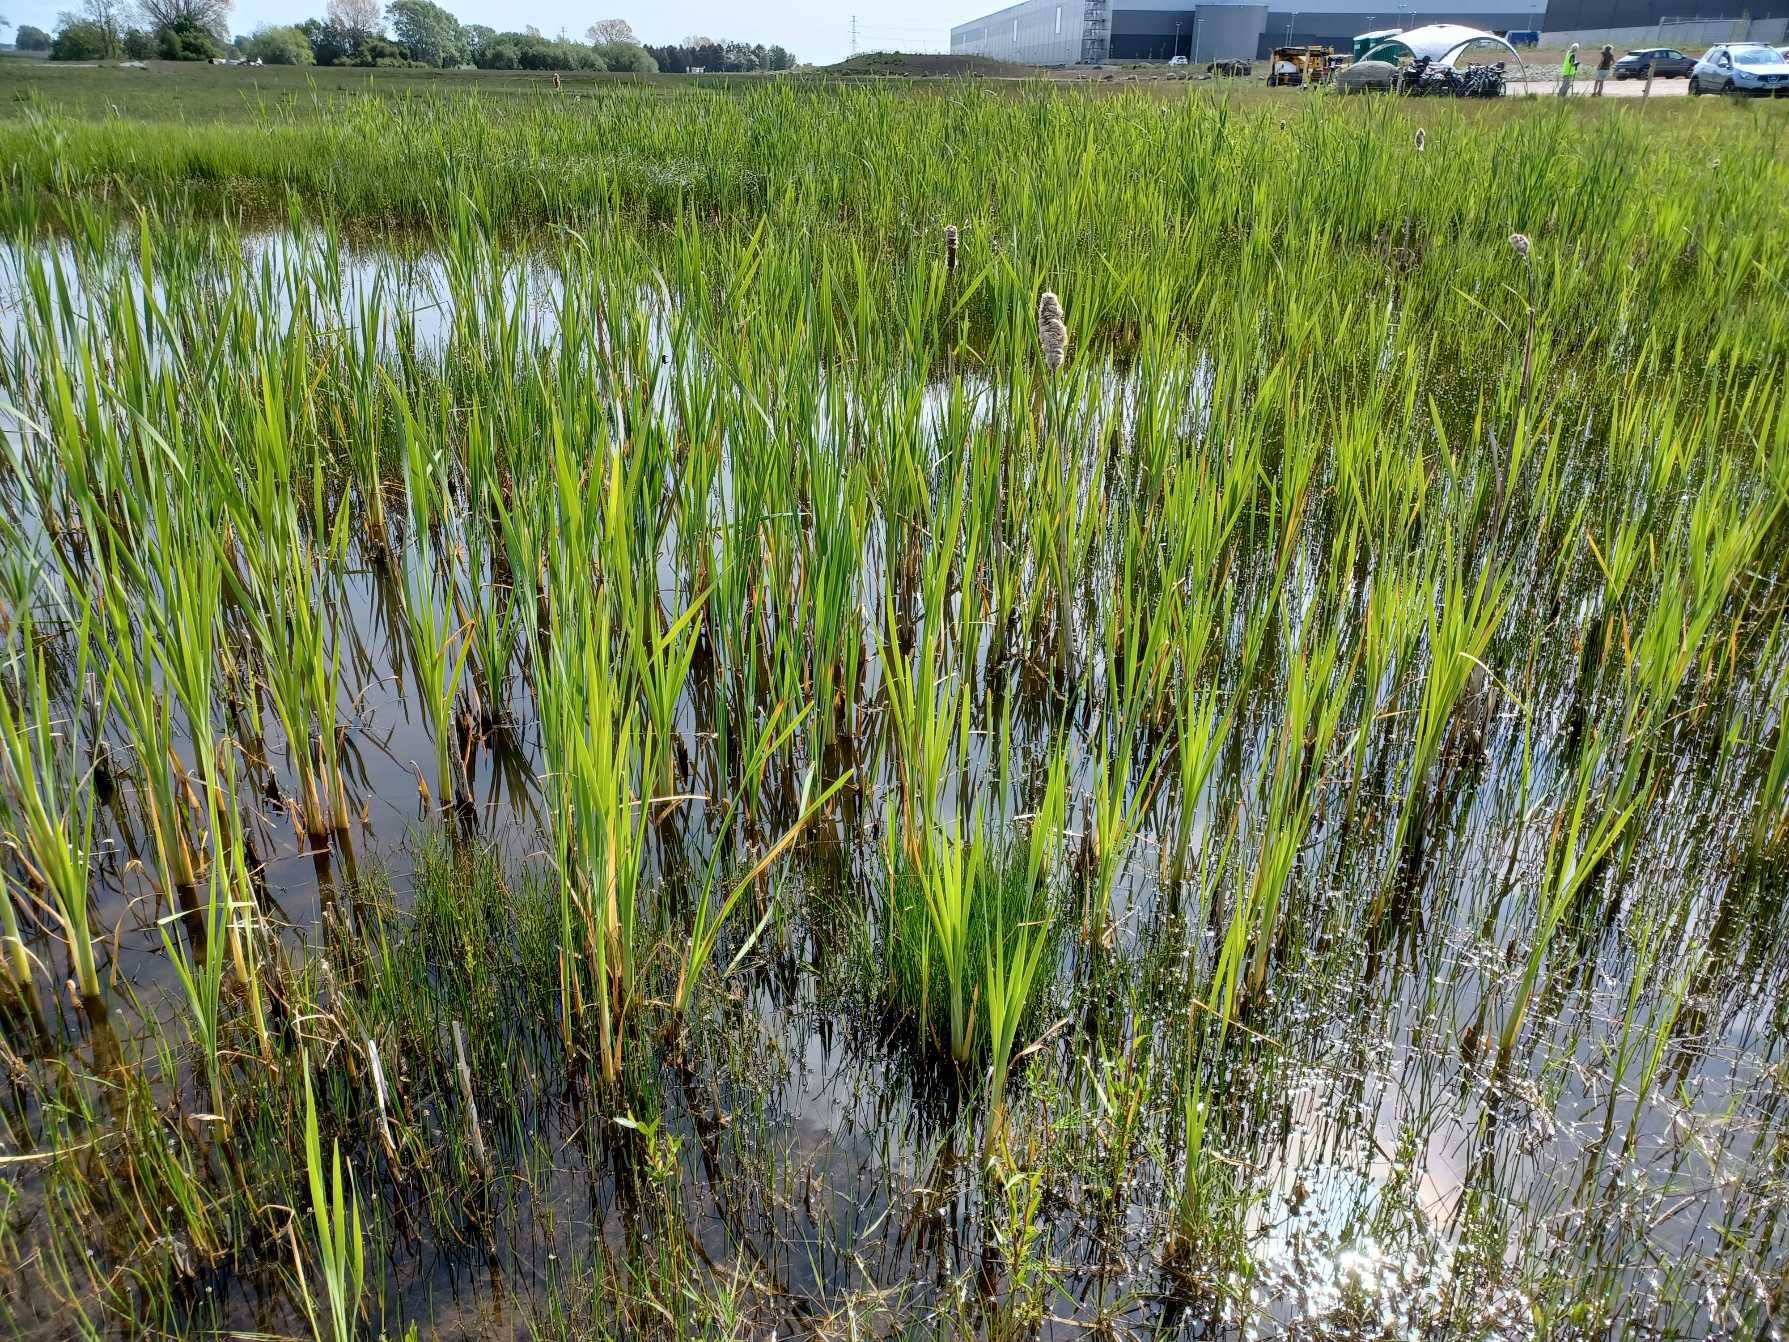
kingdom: Plantae
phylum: Tracheophyta
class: Liliopsida
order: Poales
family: Typhaceae
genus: Typha
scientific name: Typha latifolia
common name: Bredbladet dunhammer
